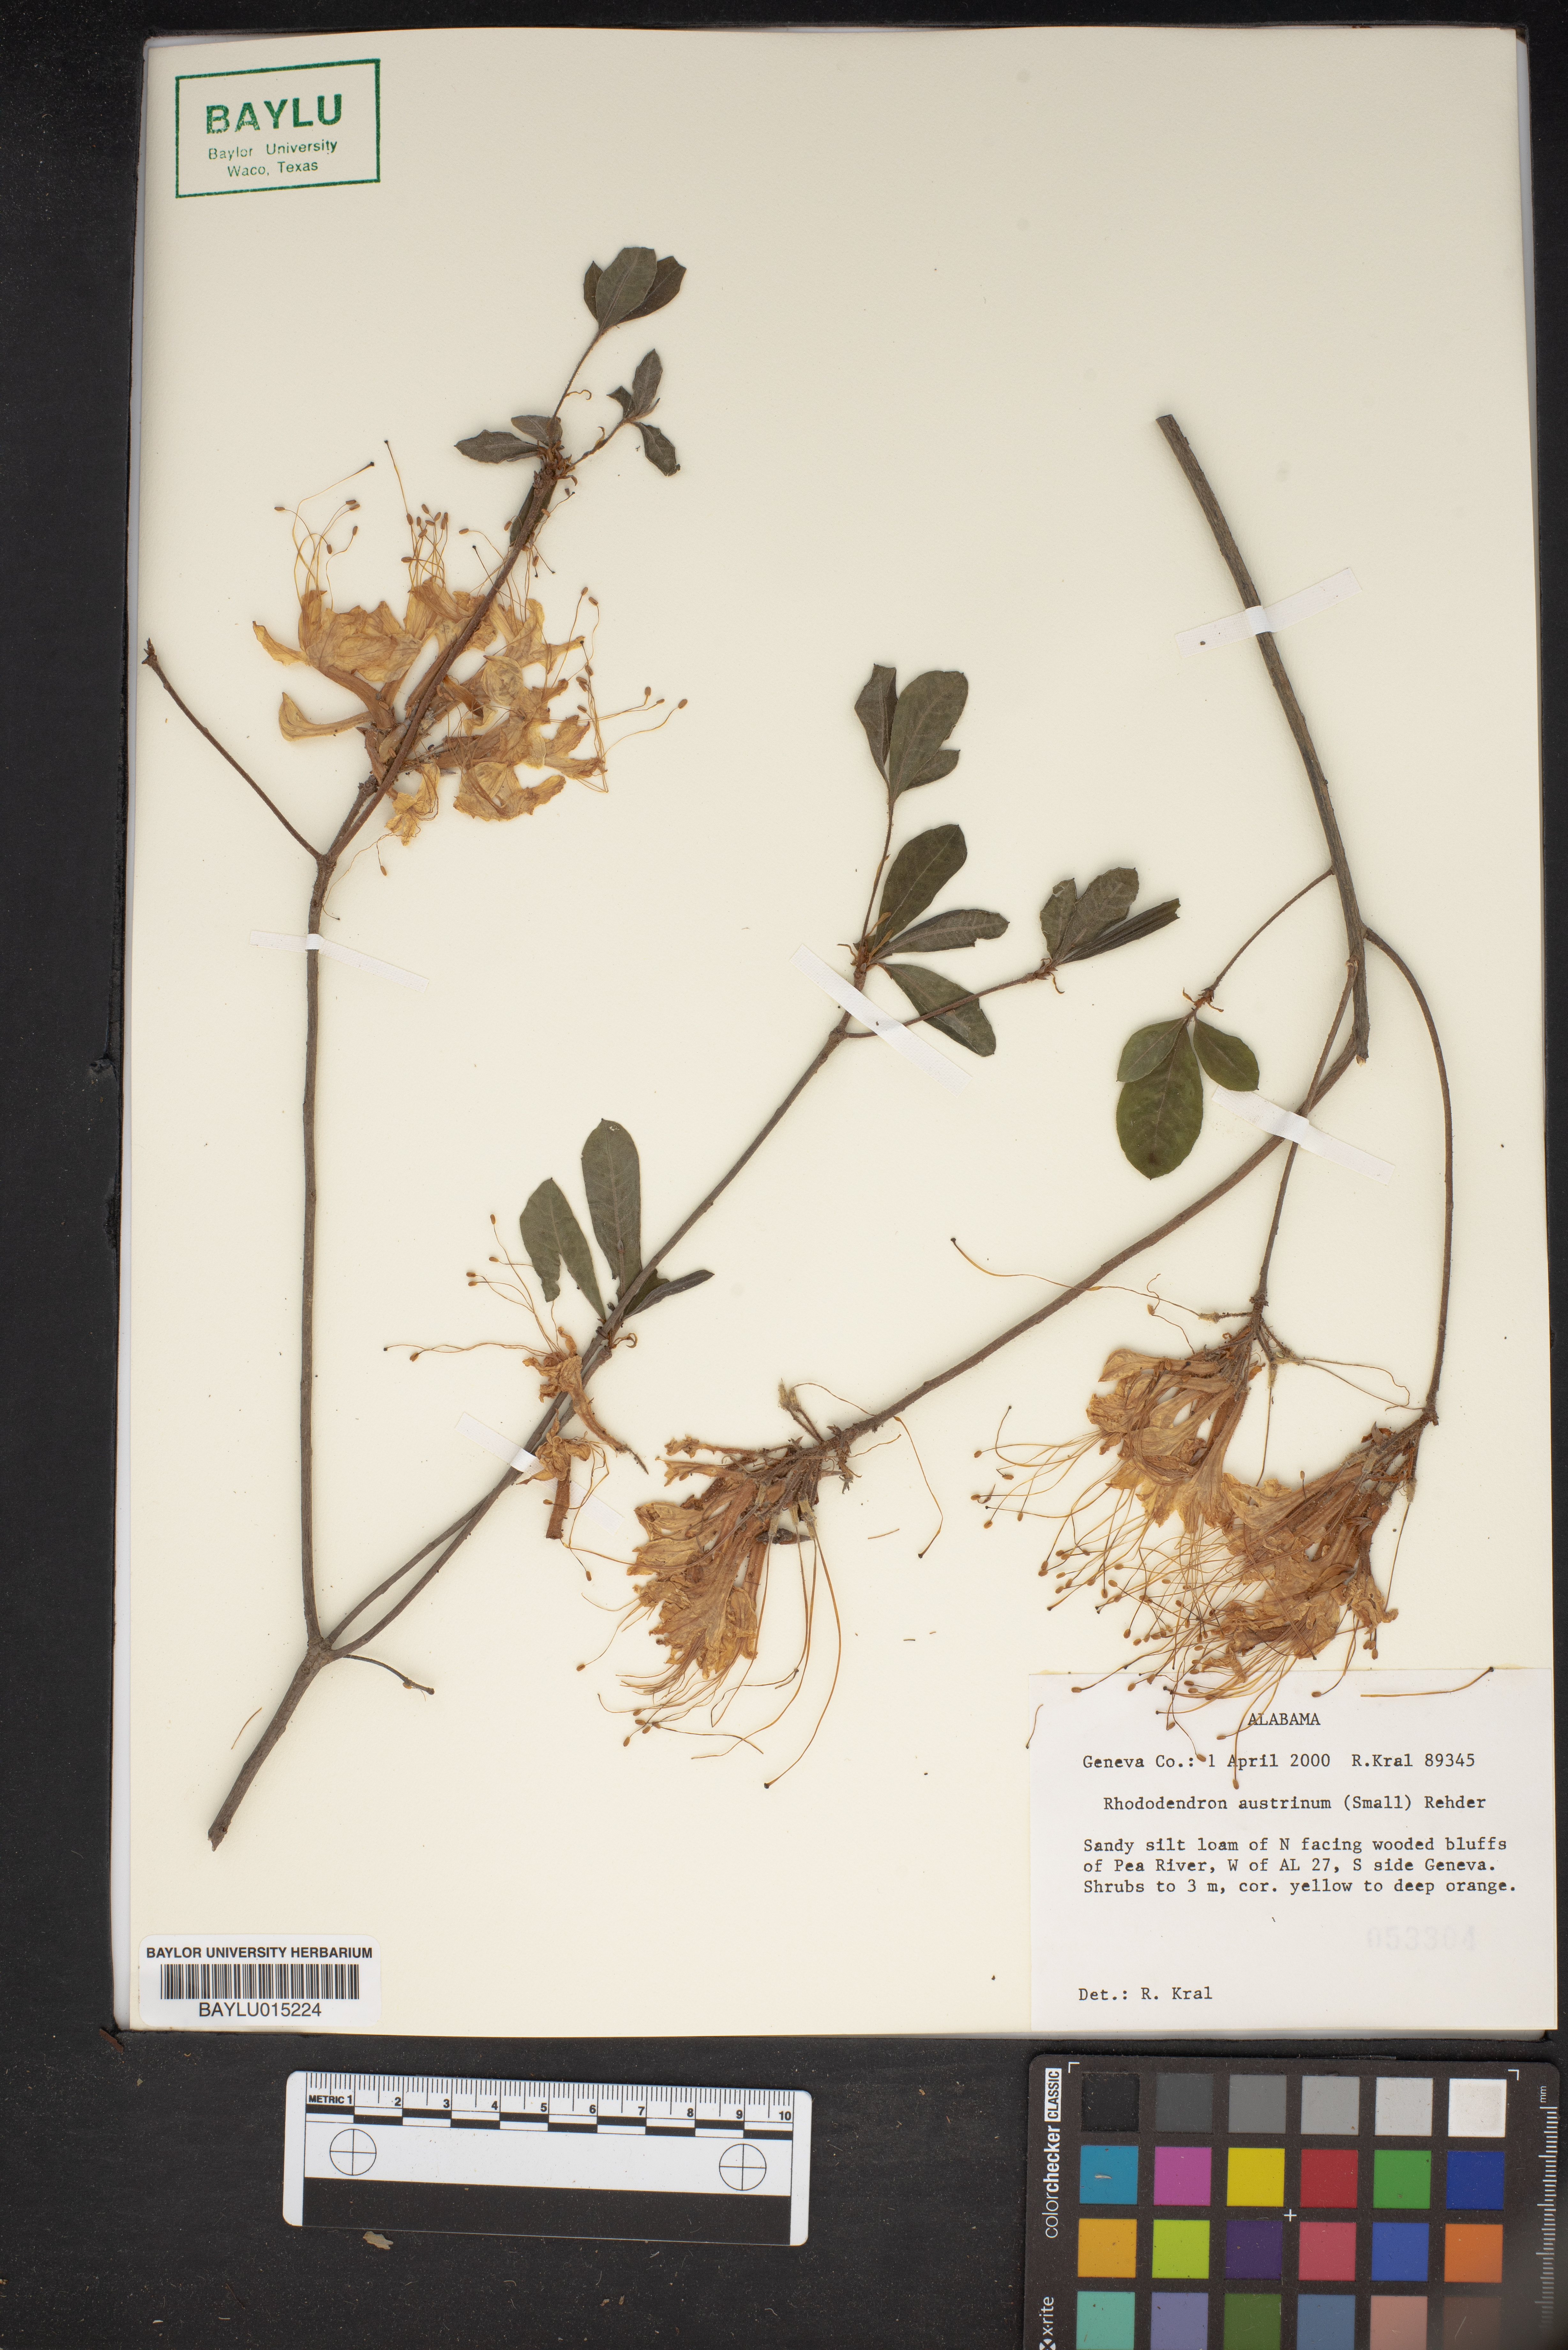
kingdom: Plantae
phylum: Tracheophyta
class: Magnoliopsida
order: Ericales
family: Ericaceae
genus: Rhododendron
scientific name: Rhododendron austrinum
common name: Florida azalea
